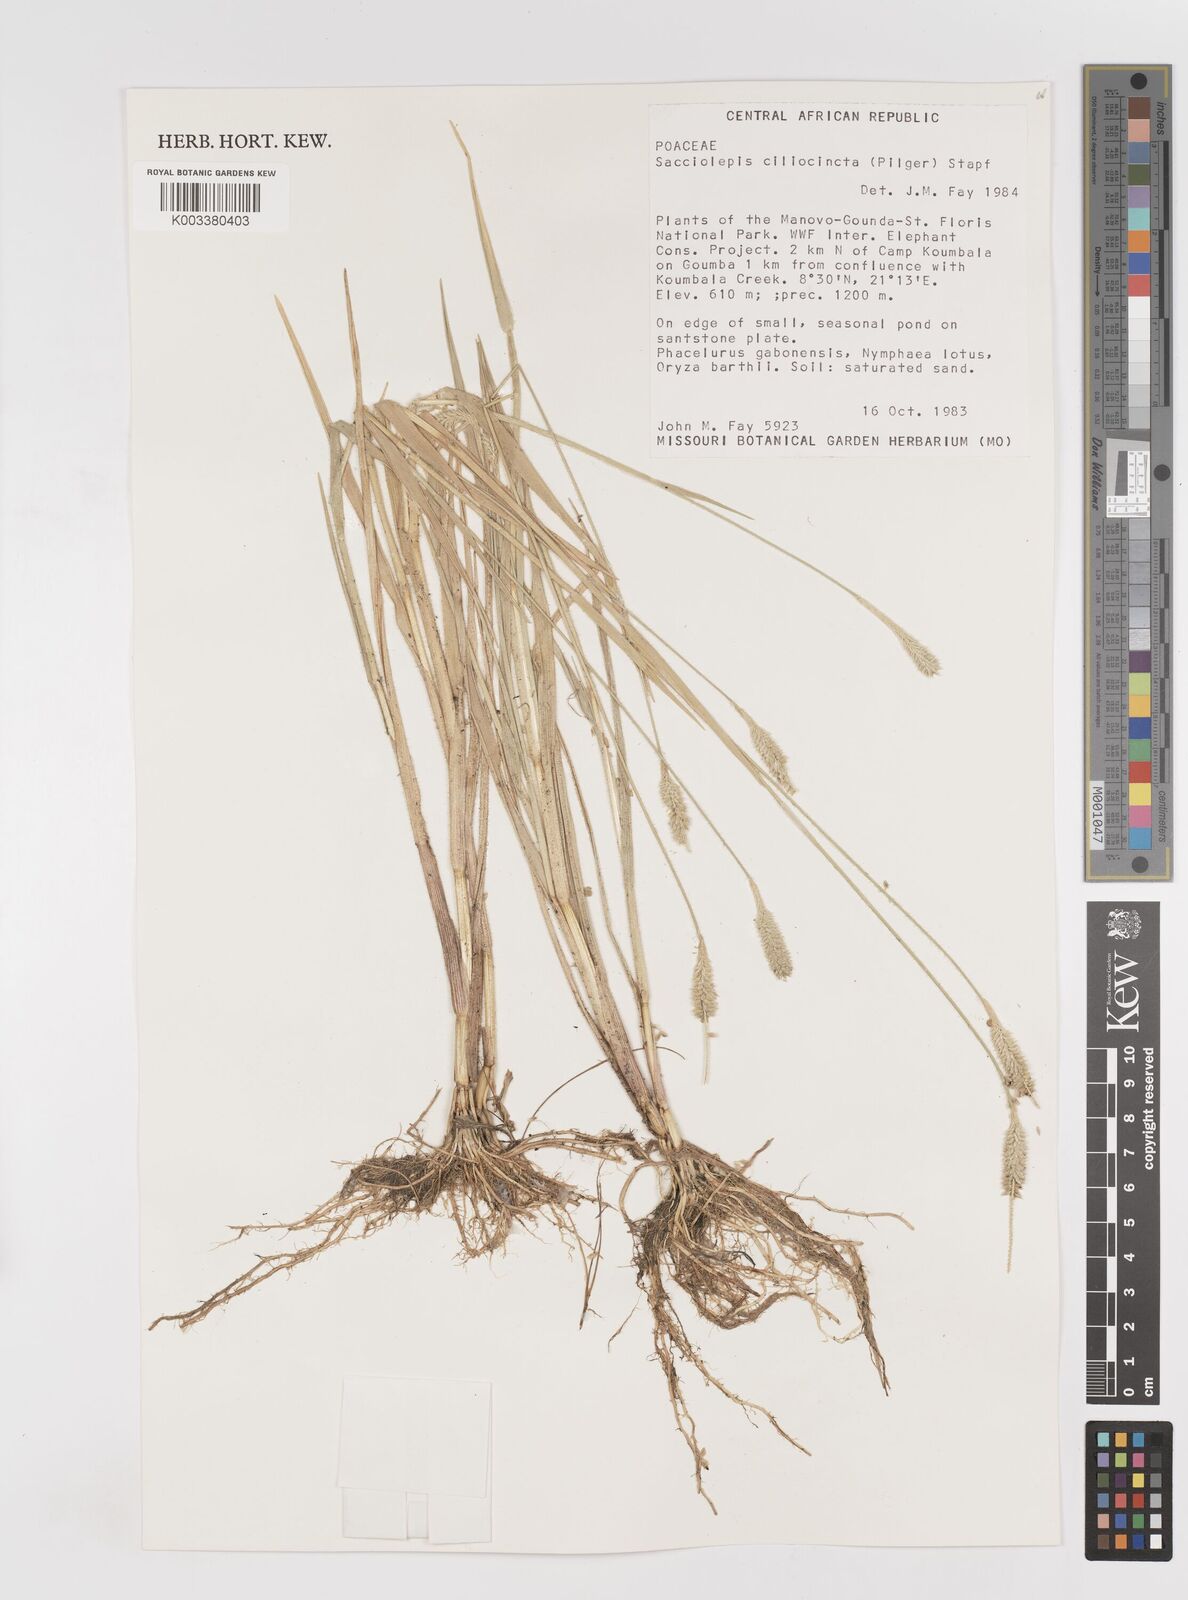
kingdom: Plantae
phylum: Tracheophyta
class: Liliopsida
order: Poales
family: Poaceae
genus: Sacciolepis
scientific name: Sacciolepis ciliocincta
